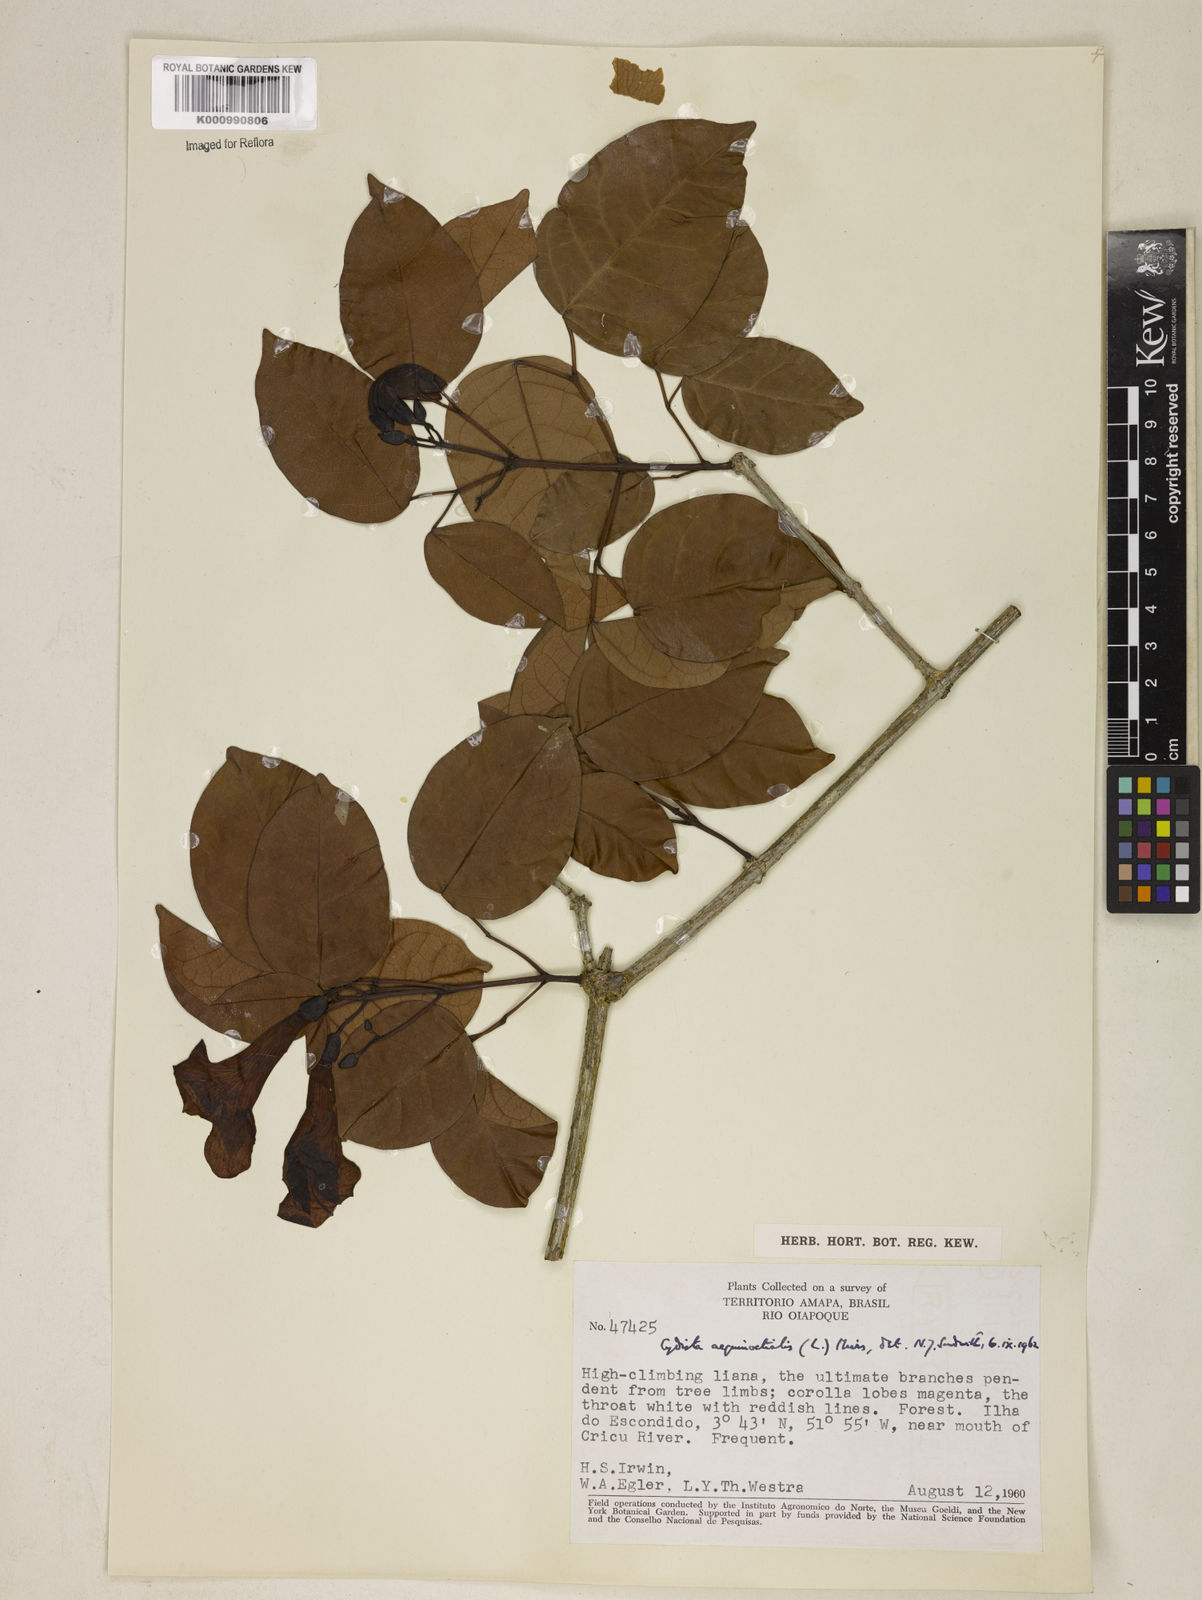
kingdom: Plantae
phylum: Tracheophyta
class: Magnoliopsida
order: Lamiales
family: Bignoniaceae
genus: Bignonia
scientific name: Bignonia aequinoctialis
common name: Garlicvine
